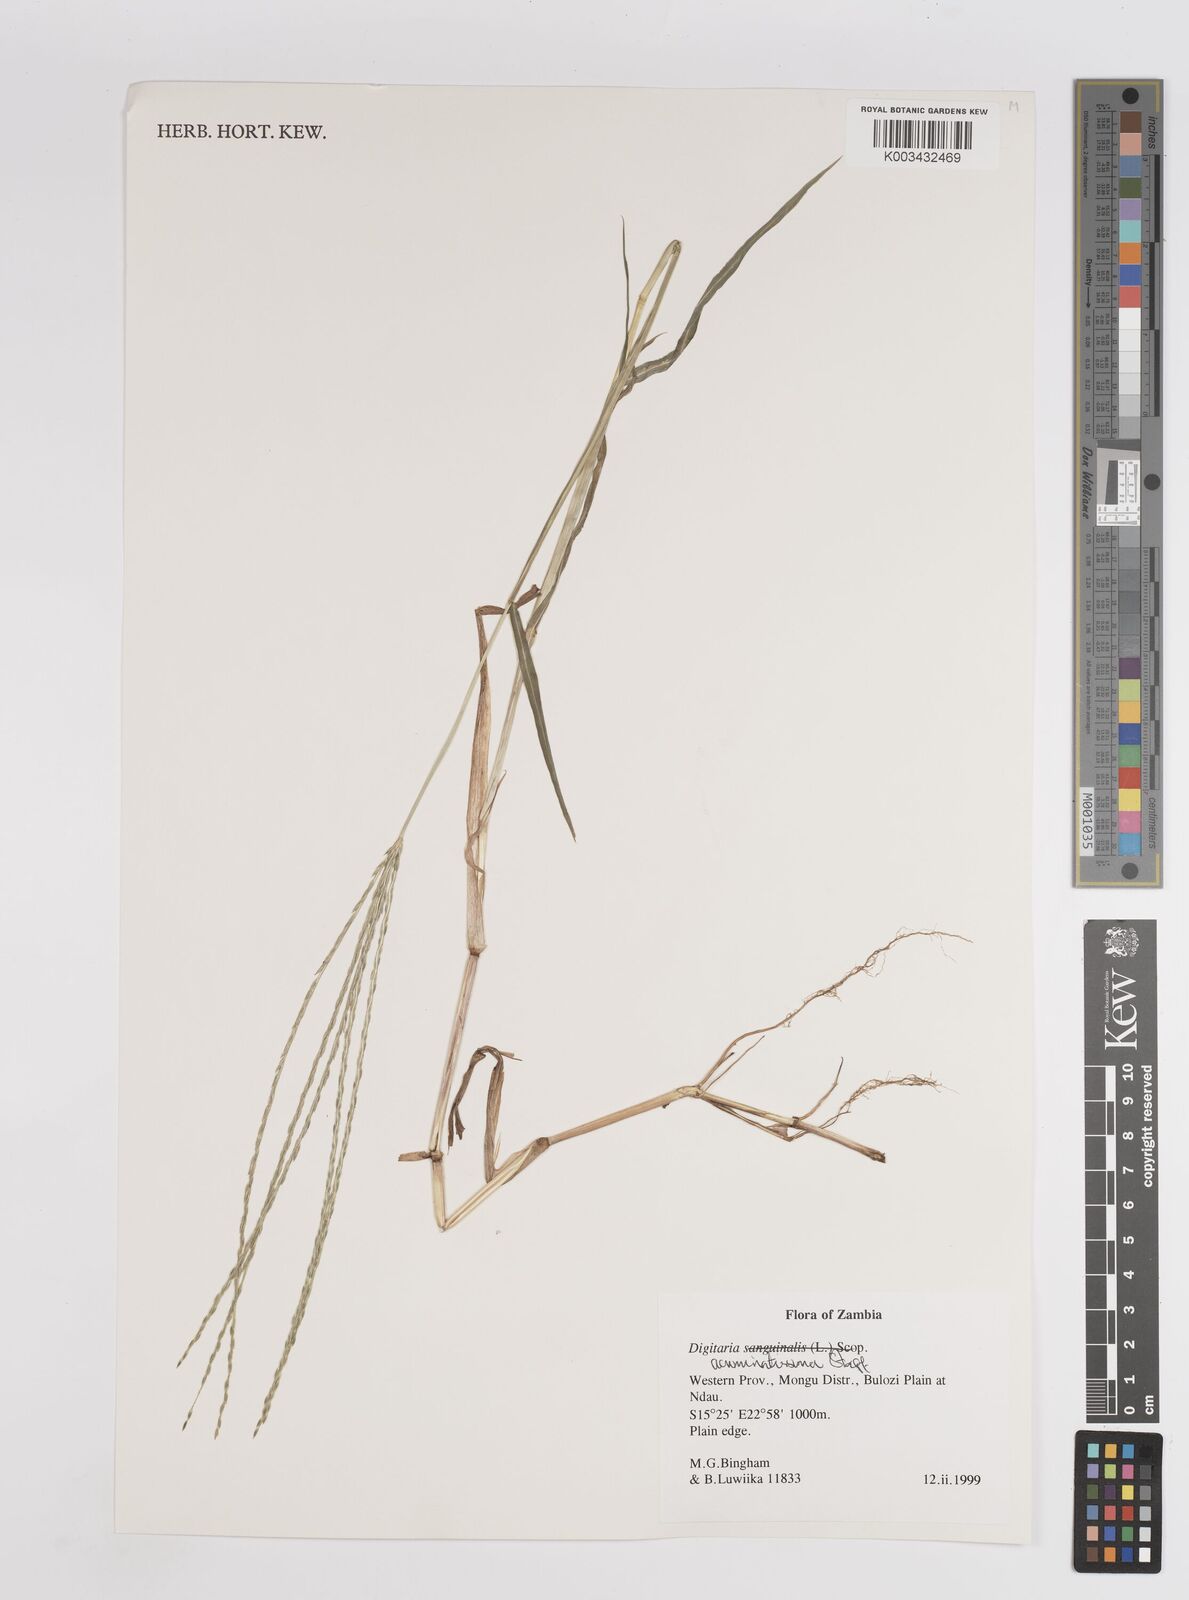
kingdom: Plantae
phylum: Tracheophyta
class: Liliopsida
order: Poales
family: Poaceae
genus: Digitaria
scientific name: Digitaria acuminatissima
